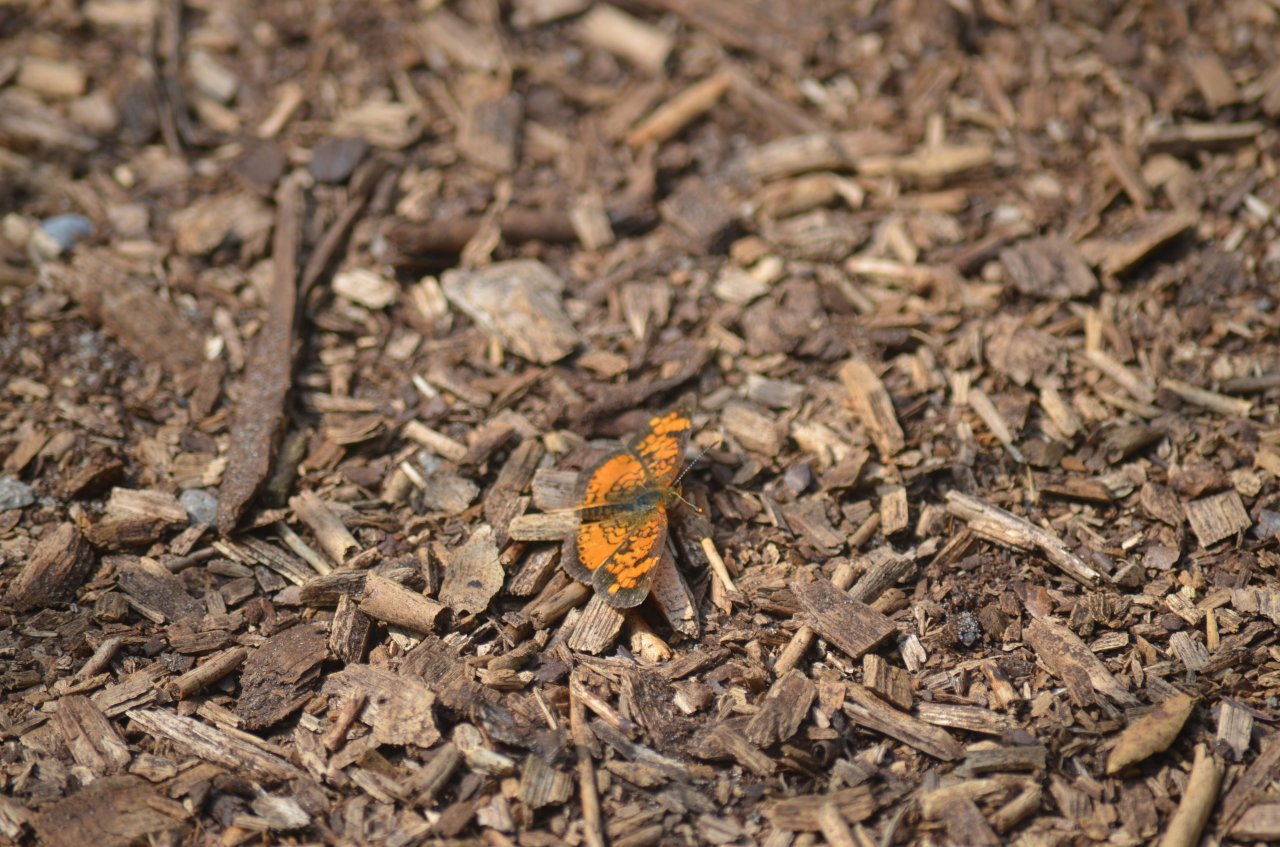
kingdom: Animalia
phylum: Arthropoda
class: Insecta
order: Lepidoptera
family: Nymphalidae
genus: Phyciodes
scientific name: Phyciodes tharos
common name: Northern Crescent
